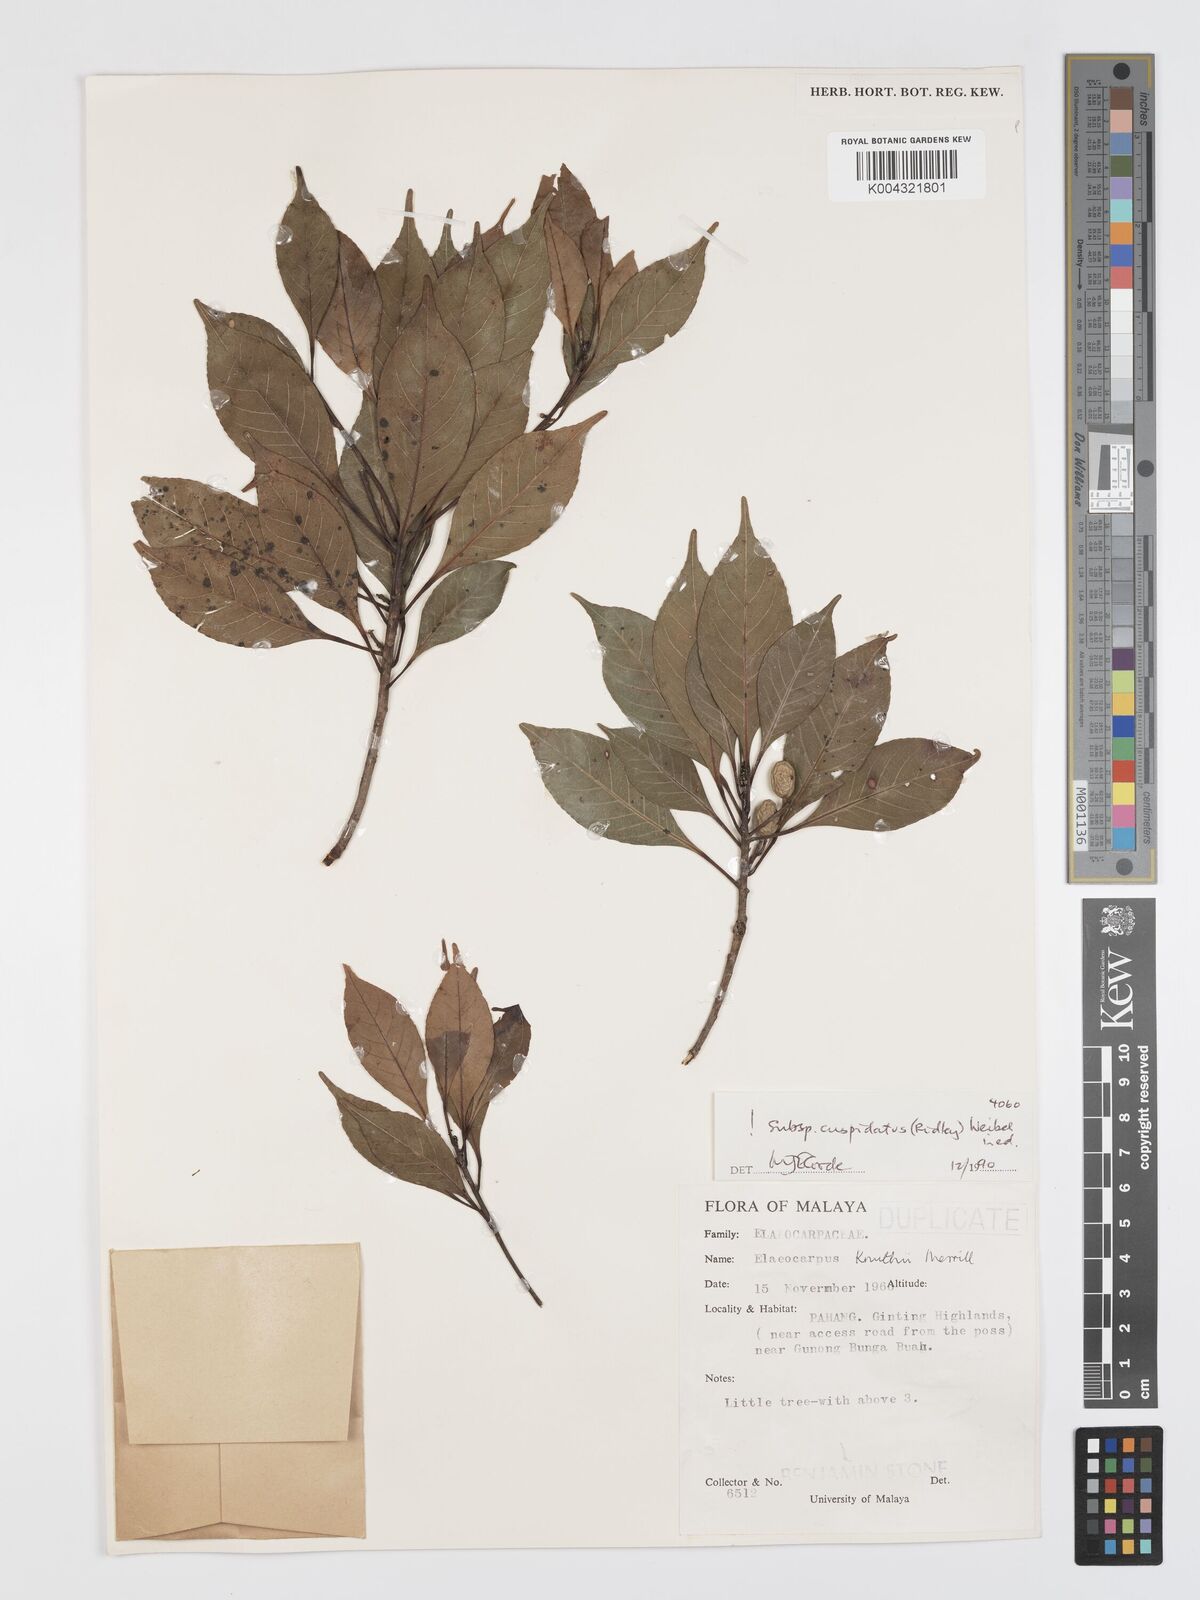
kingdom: Plantae
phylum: Tracheophyta
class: Magnoliopsida
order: Oxalidales
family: Elaeocarpaceae
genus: Elaeocarpus
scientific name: Elaeocarpus knuthii
